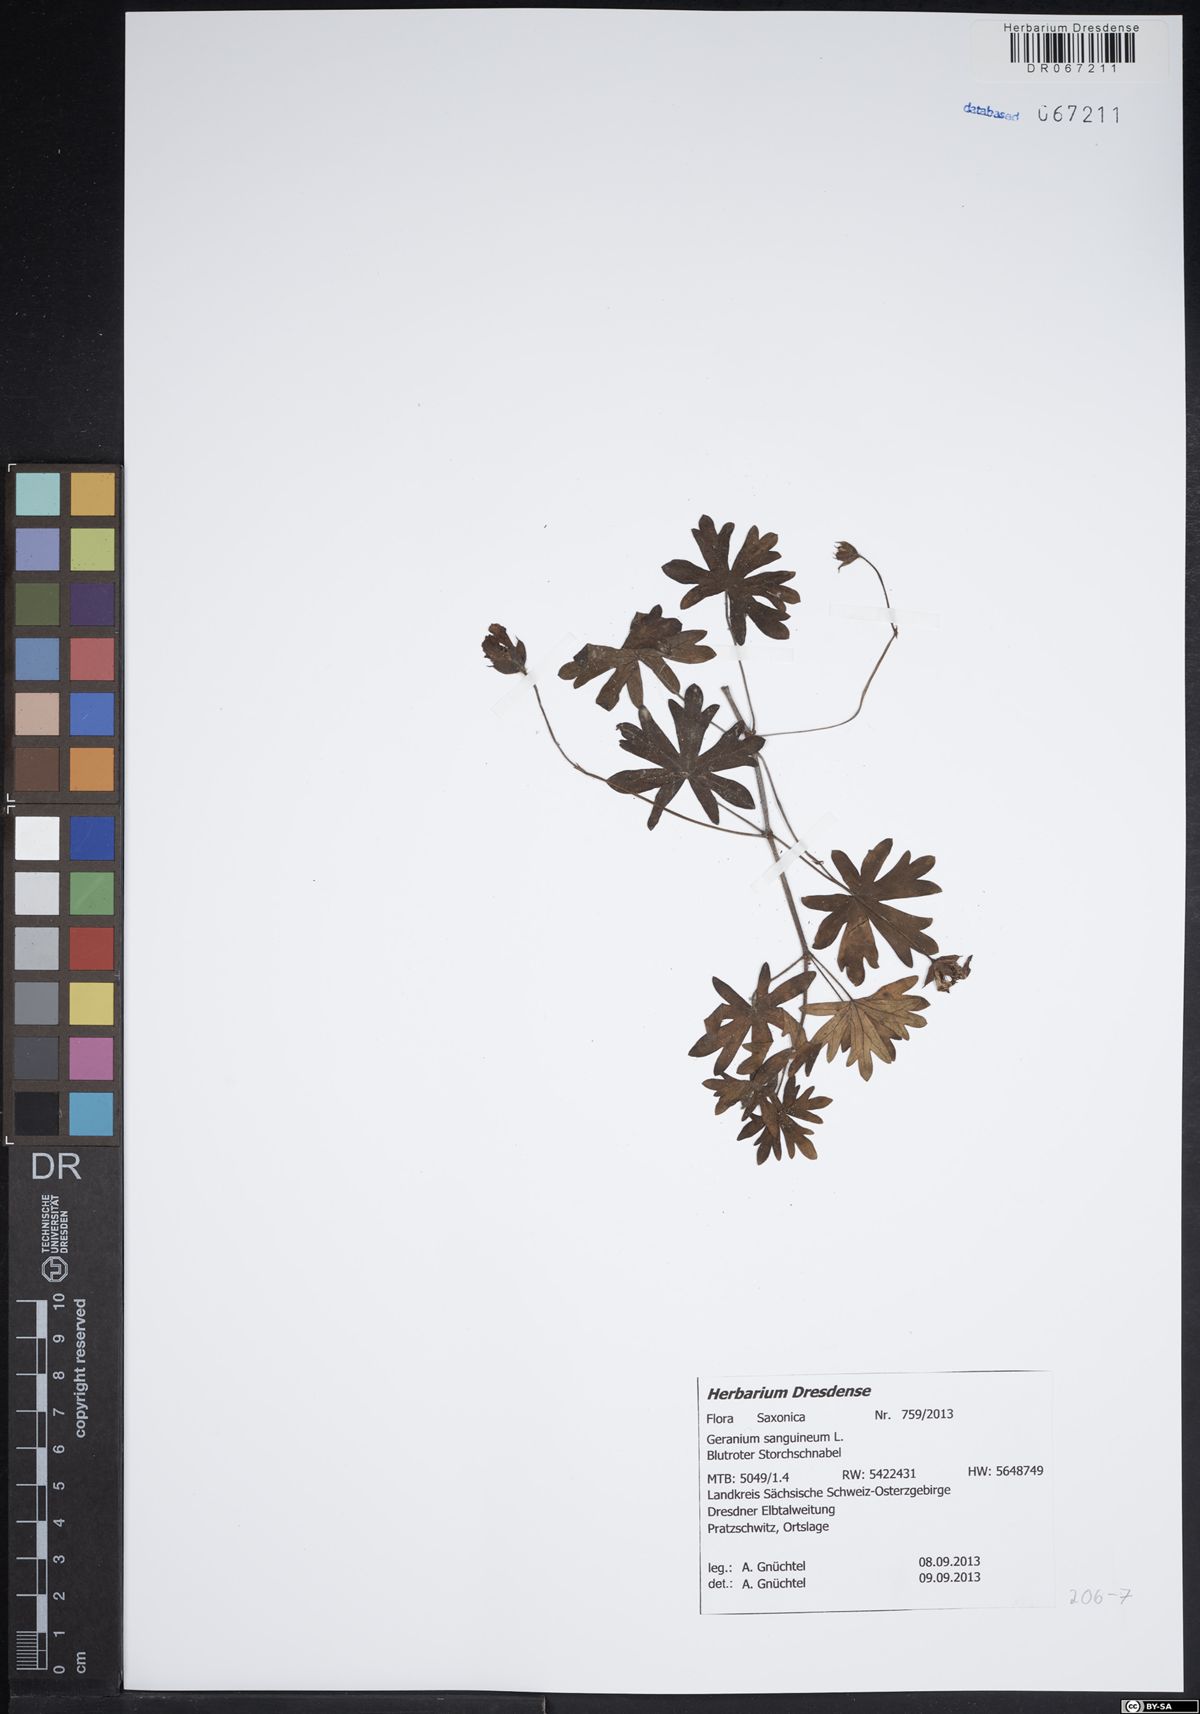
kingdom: Plantae
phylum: Tracheophyta
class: Magnoliopsida
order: Geraniales
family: Geraniaceae
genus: Geranium
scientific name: Geranium sanguineum
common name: Bloody crane's-bill
